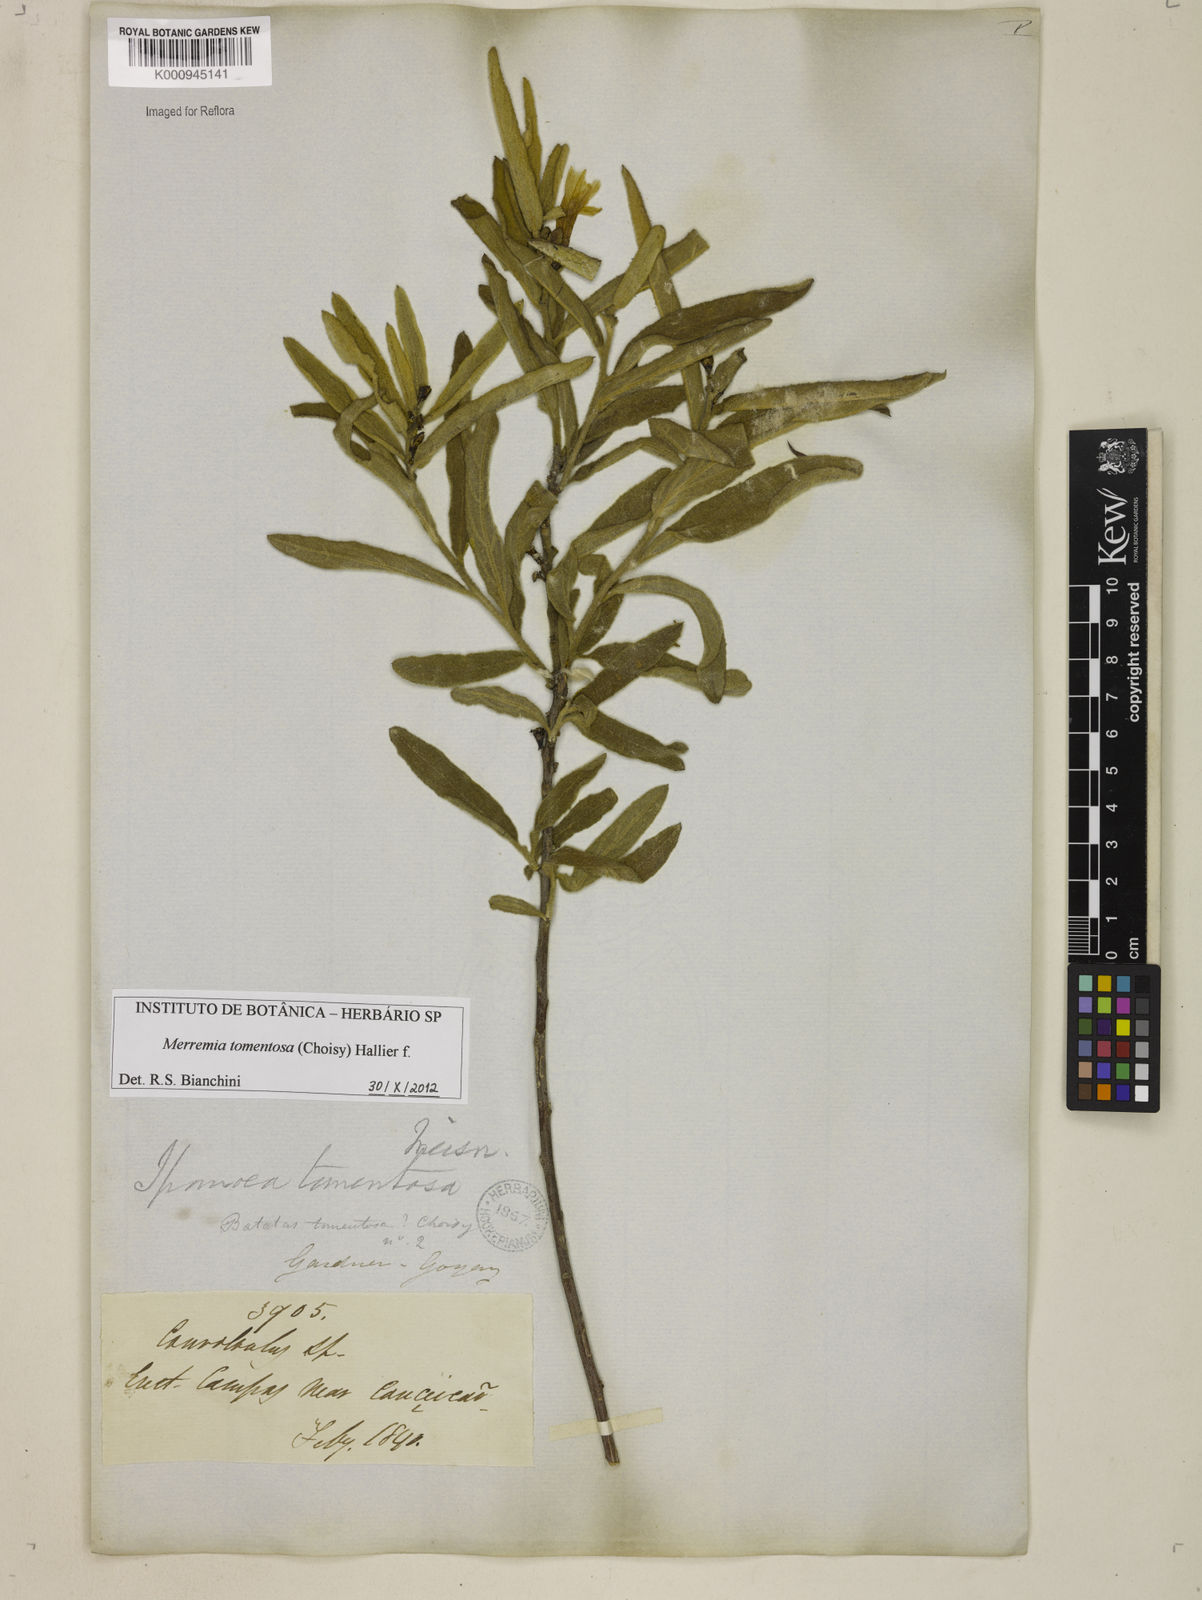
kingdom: Plantae
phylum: Tracheophyta
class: Magnoliopsida
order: Solanales
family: Convolvulaceae
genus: Distimake
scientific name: Distimake tomentosus
